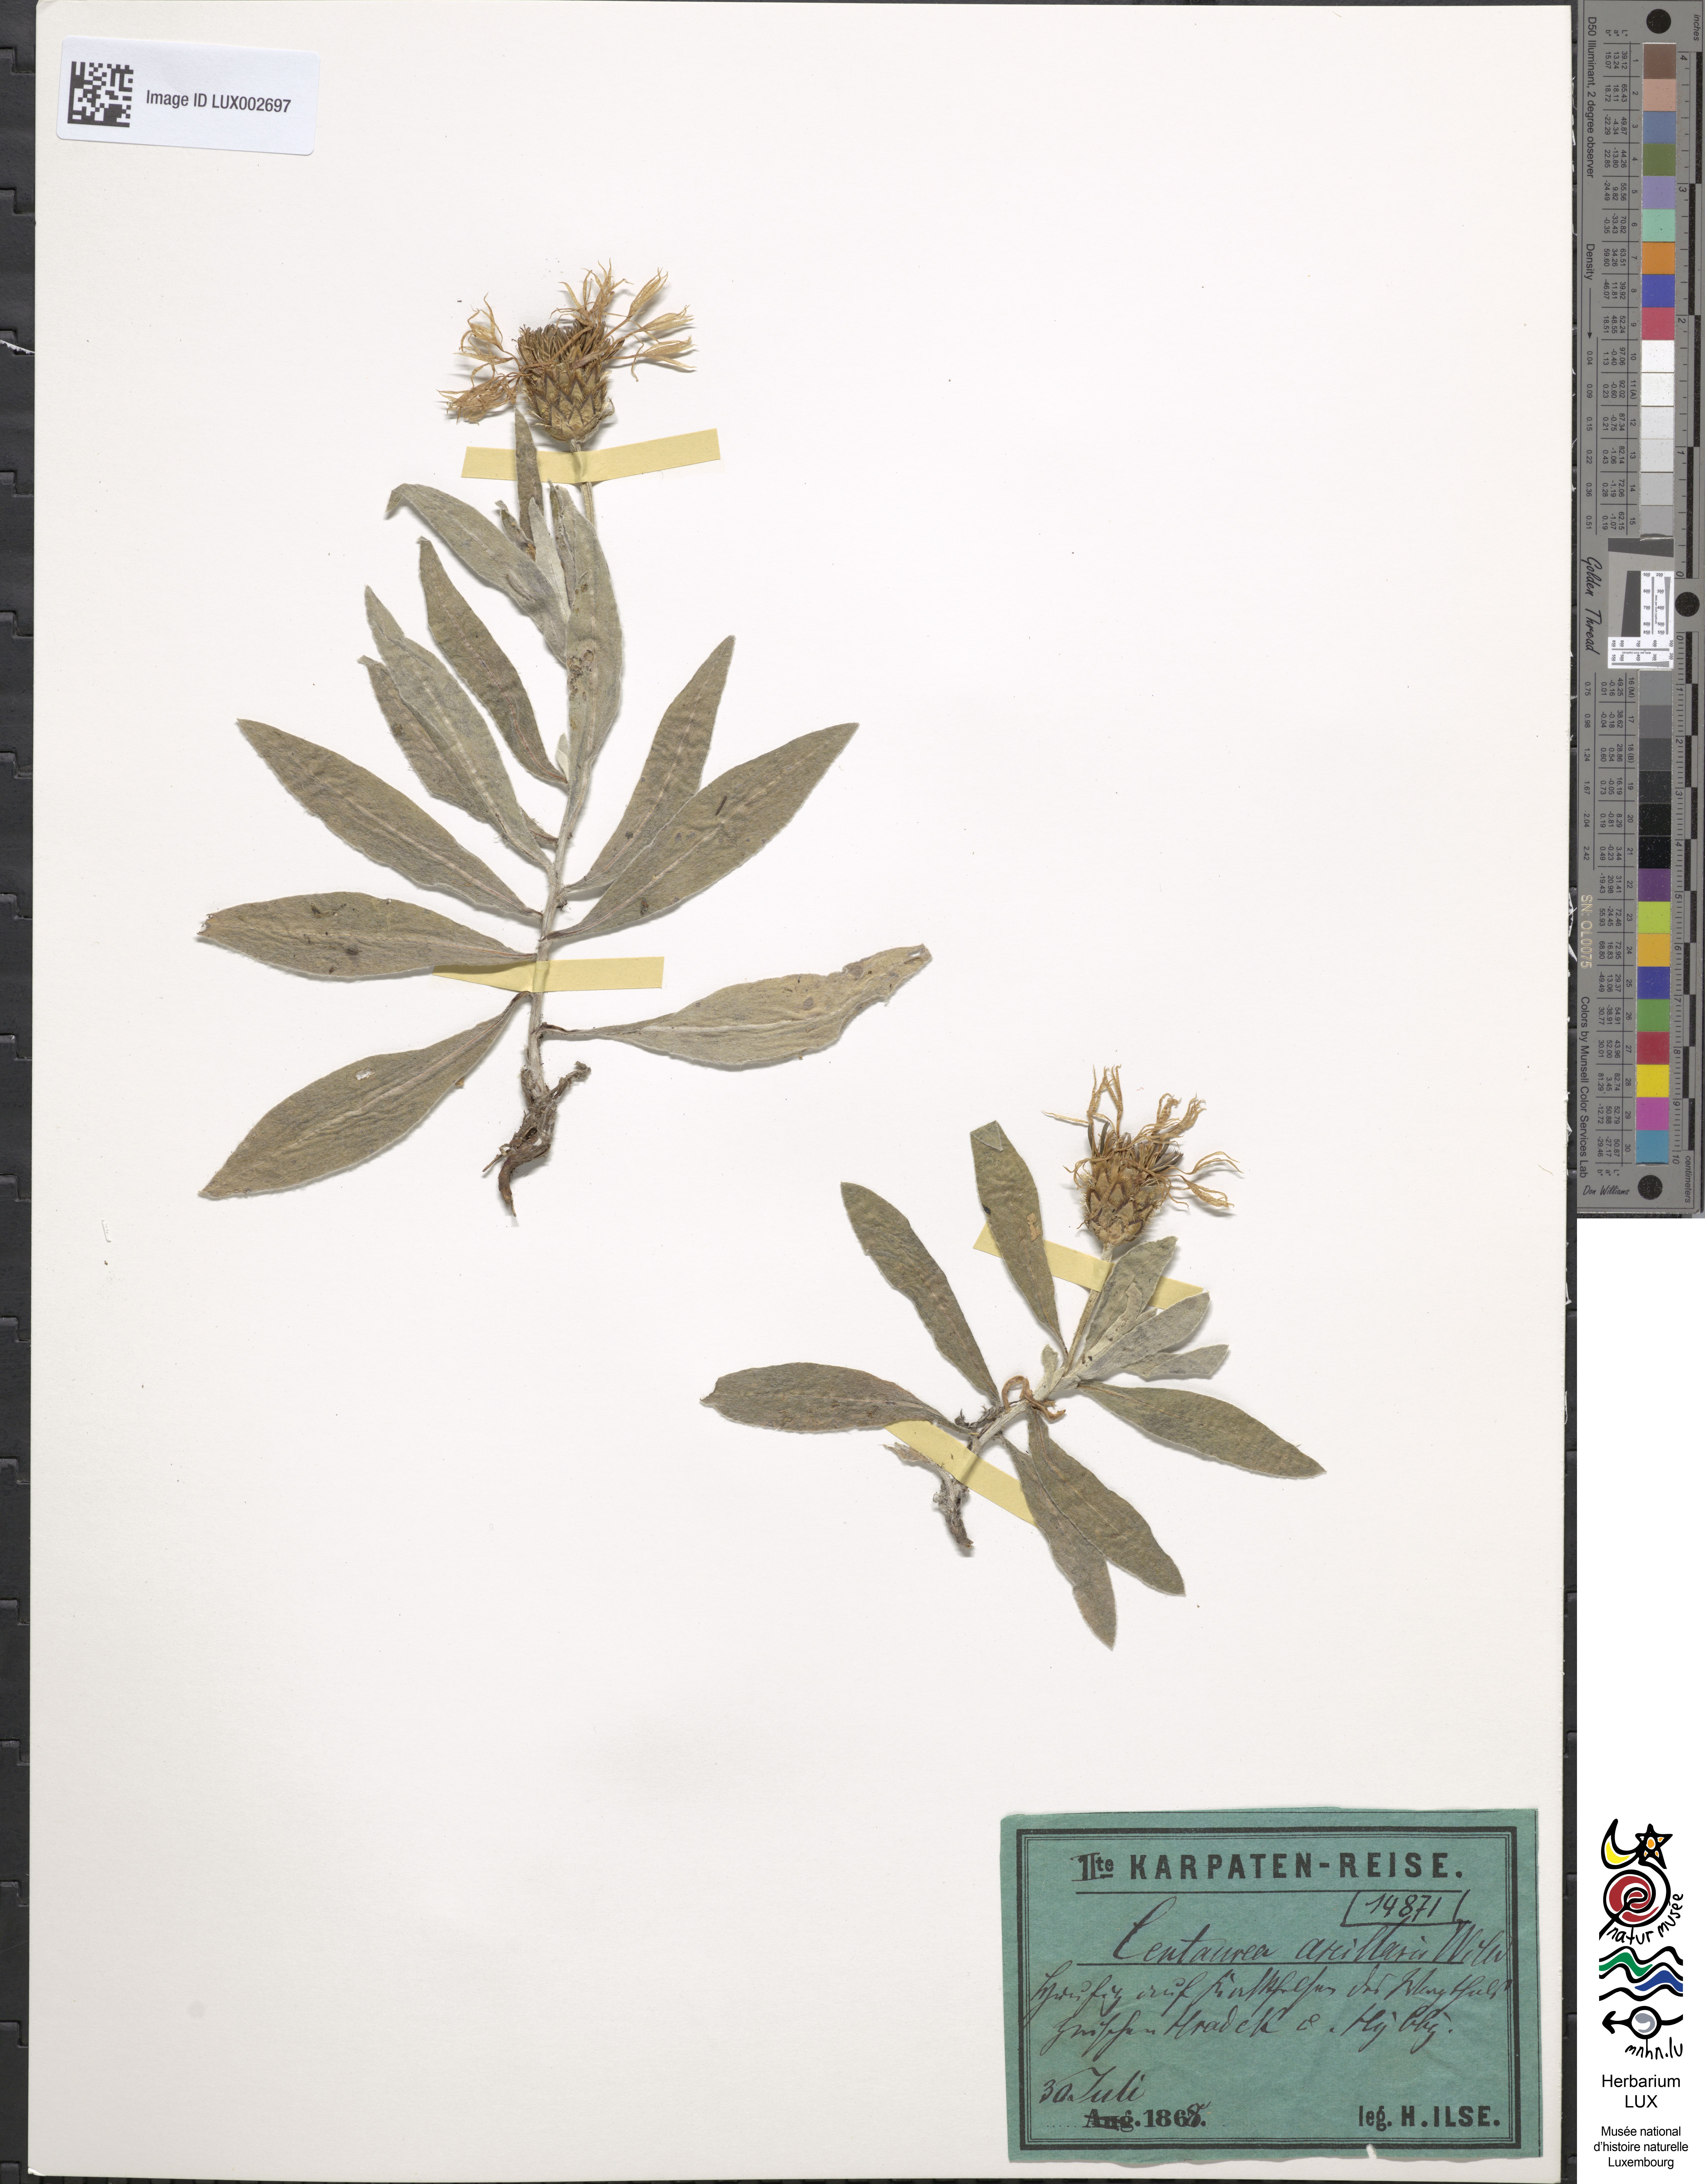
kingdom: Plantae
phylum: Tracheophyta
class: Magnoliopsida
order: Asterales
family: Asteraceae
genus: Centaurea
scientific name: Centaurea triumfettii
